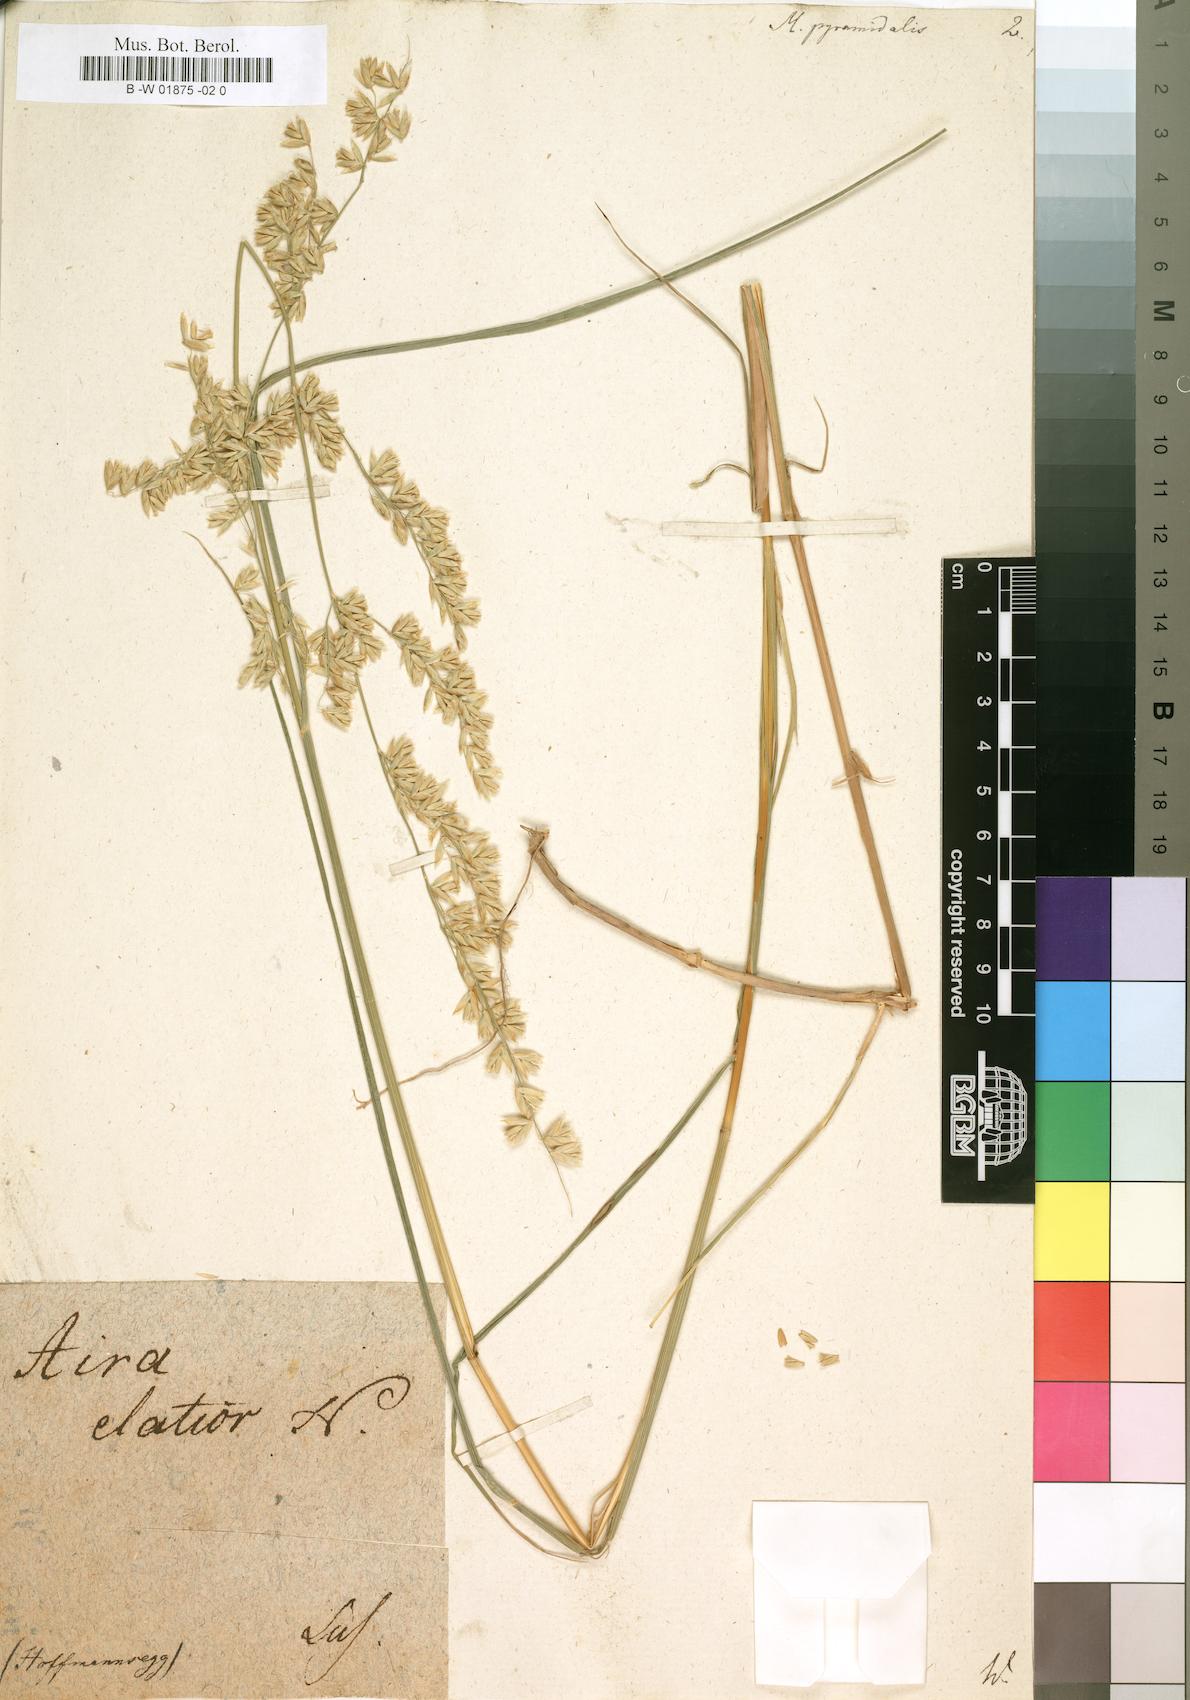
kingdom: Plantae
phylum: Tracheophyta
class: Liliopsida
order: Poales
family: Poaceae
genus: Melica
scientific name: Melica minuta
